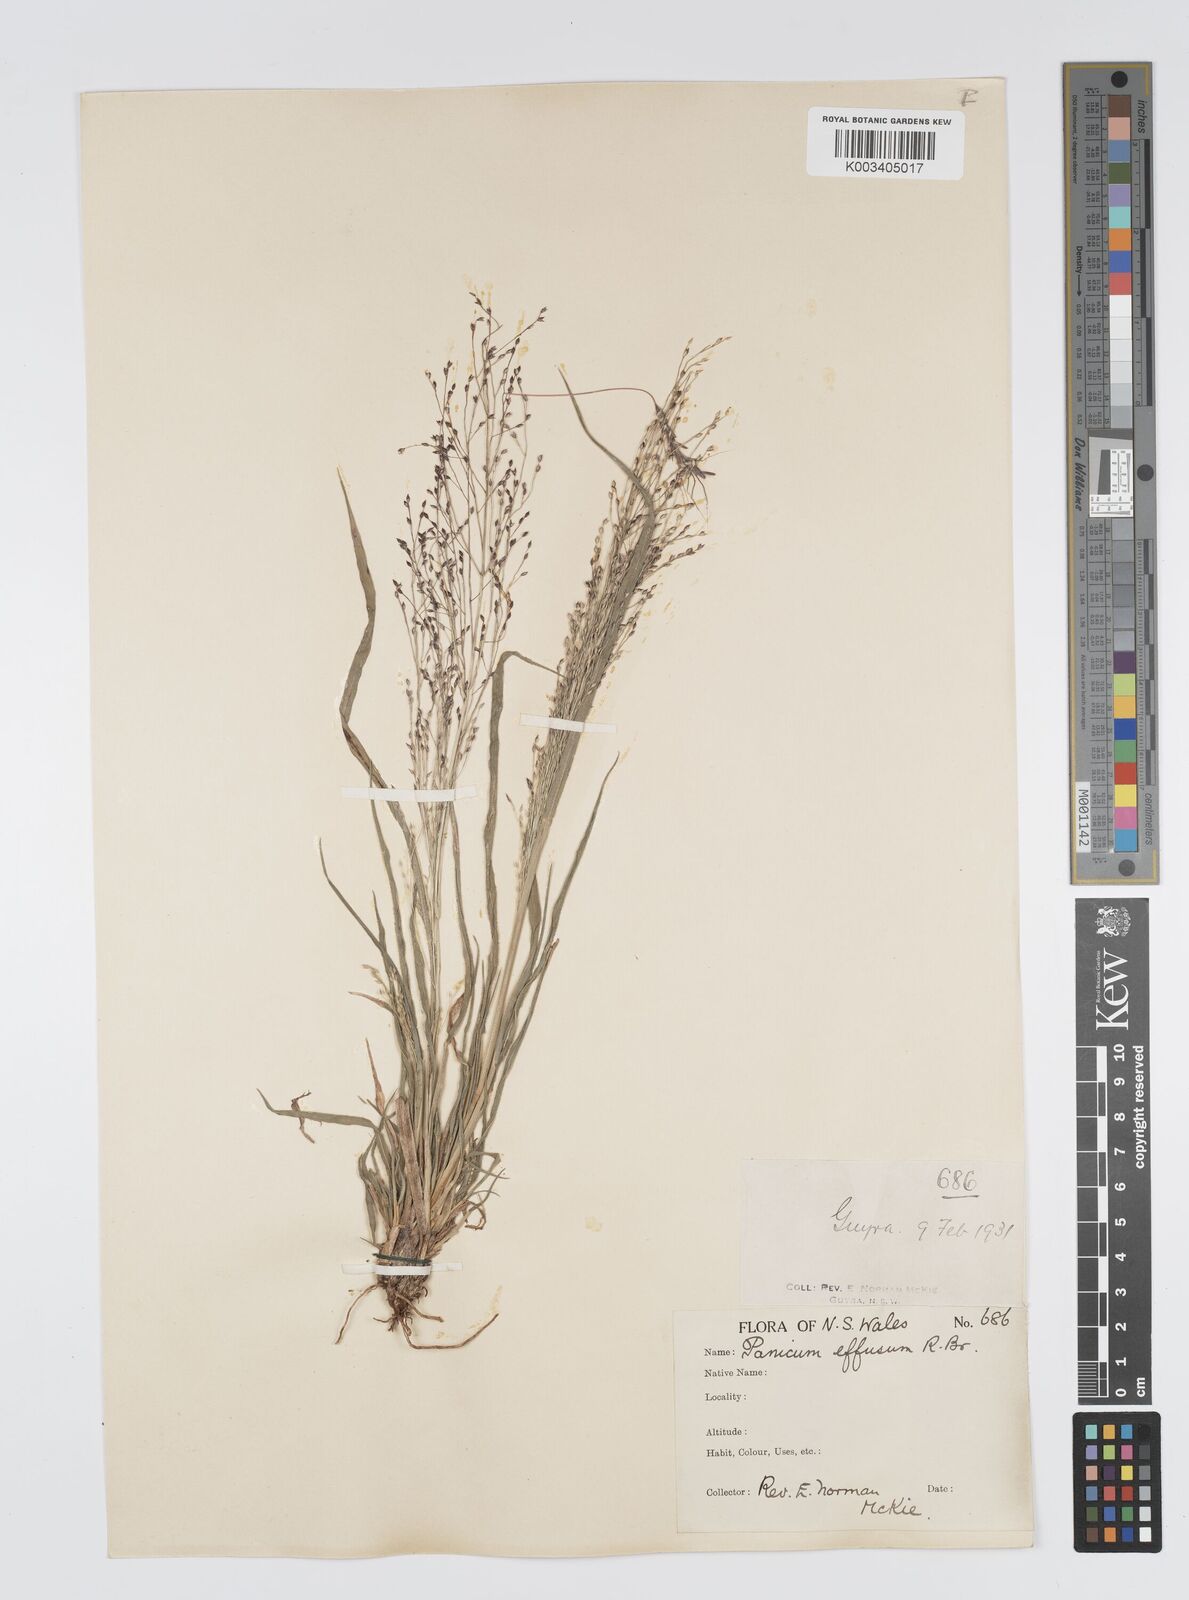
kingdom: Plantae
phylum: Tracheophyta
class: Liliopsida
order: Poales
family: Poaceae
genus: Panicum
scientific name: Panicum effusum
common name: Hairy panic grass
